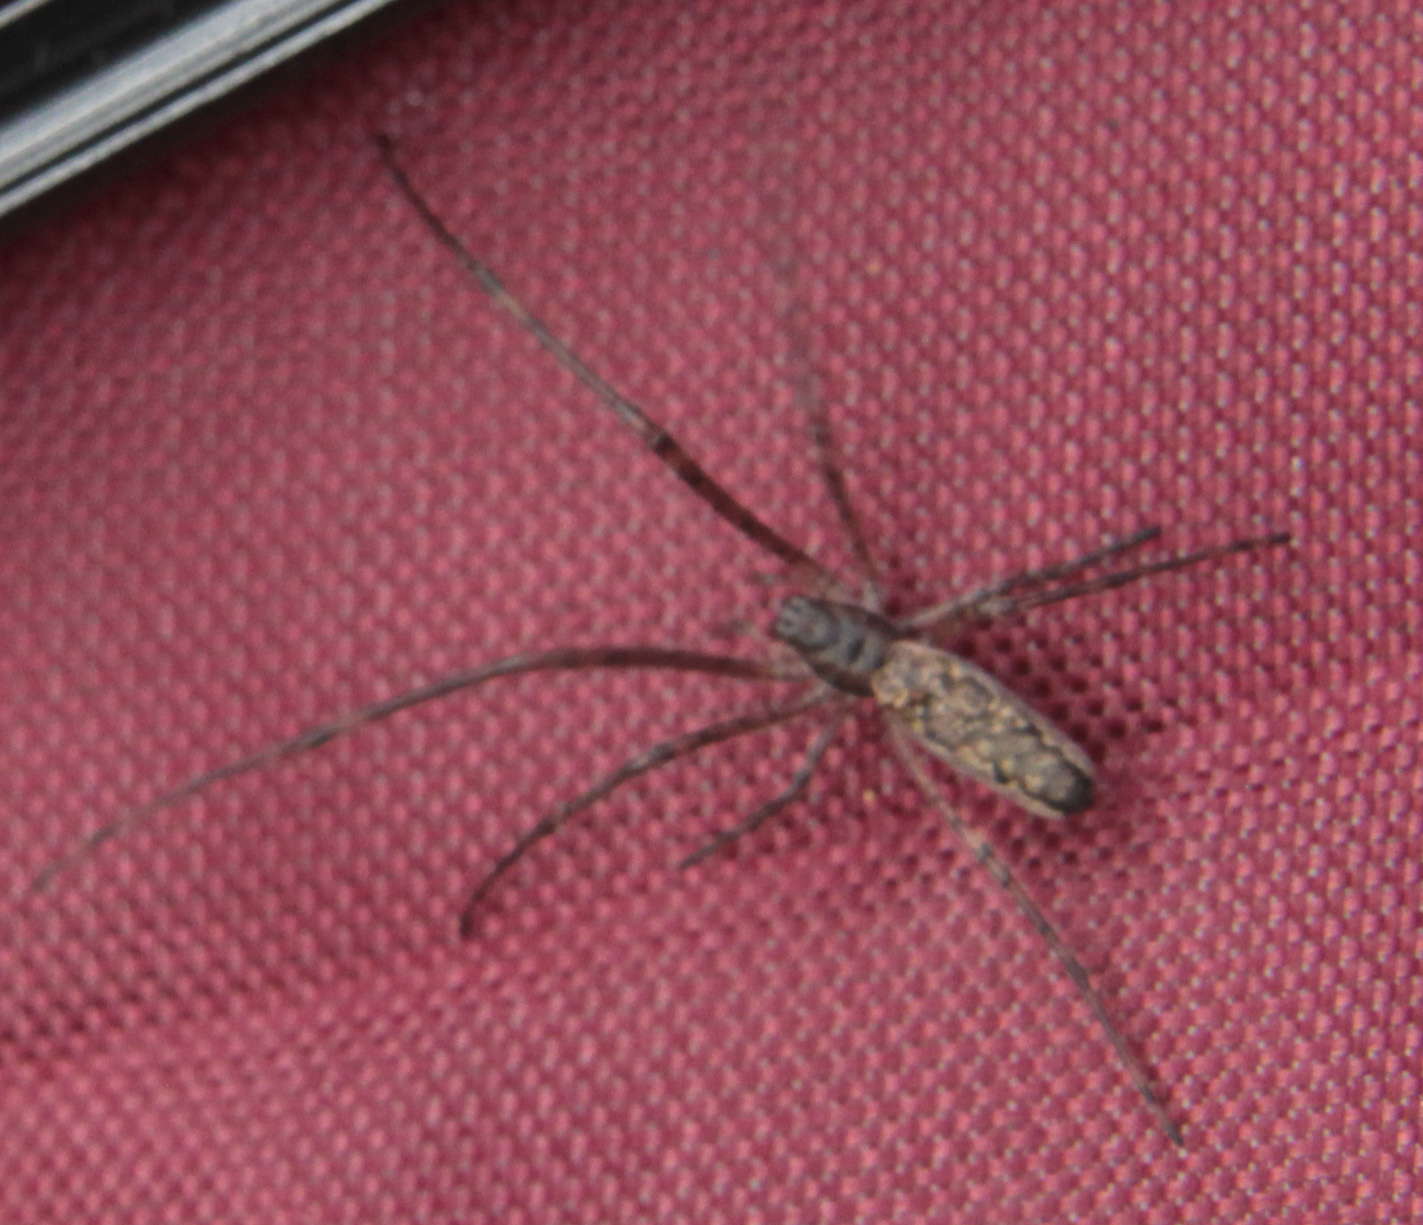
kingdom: Animalia
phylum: Arthropoda
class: Arachnida
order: Araneae
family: Tetragnathidae
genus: Tetragnatha
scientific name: Tetragnatha dearmata
